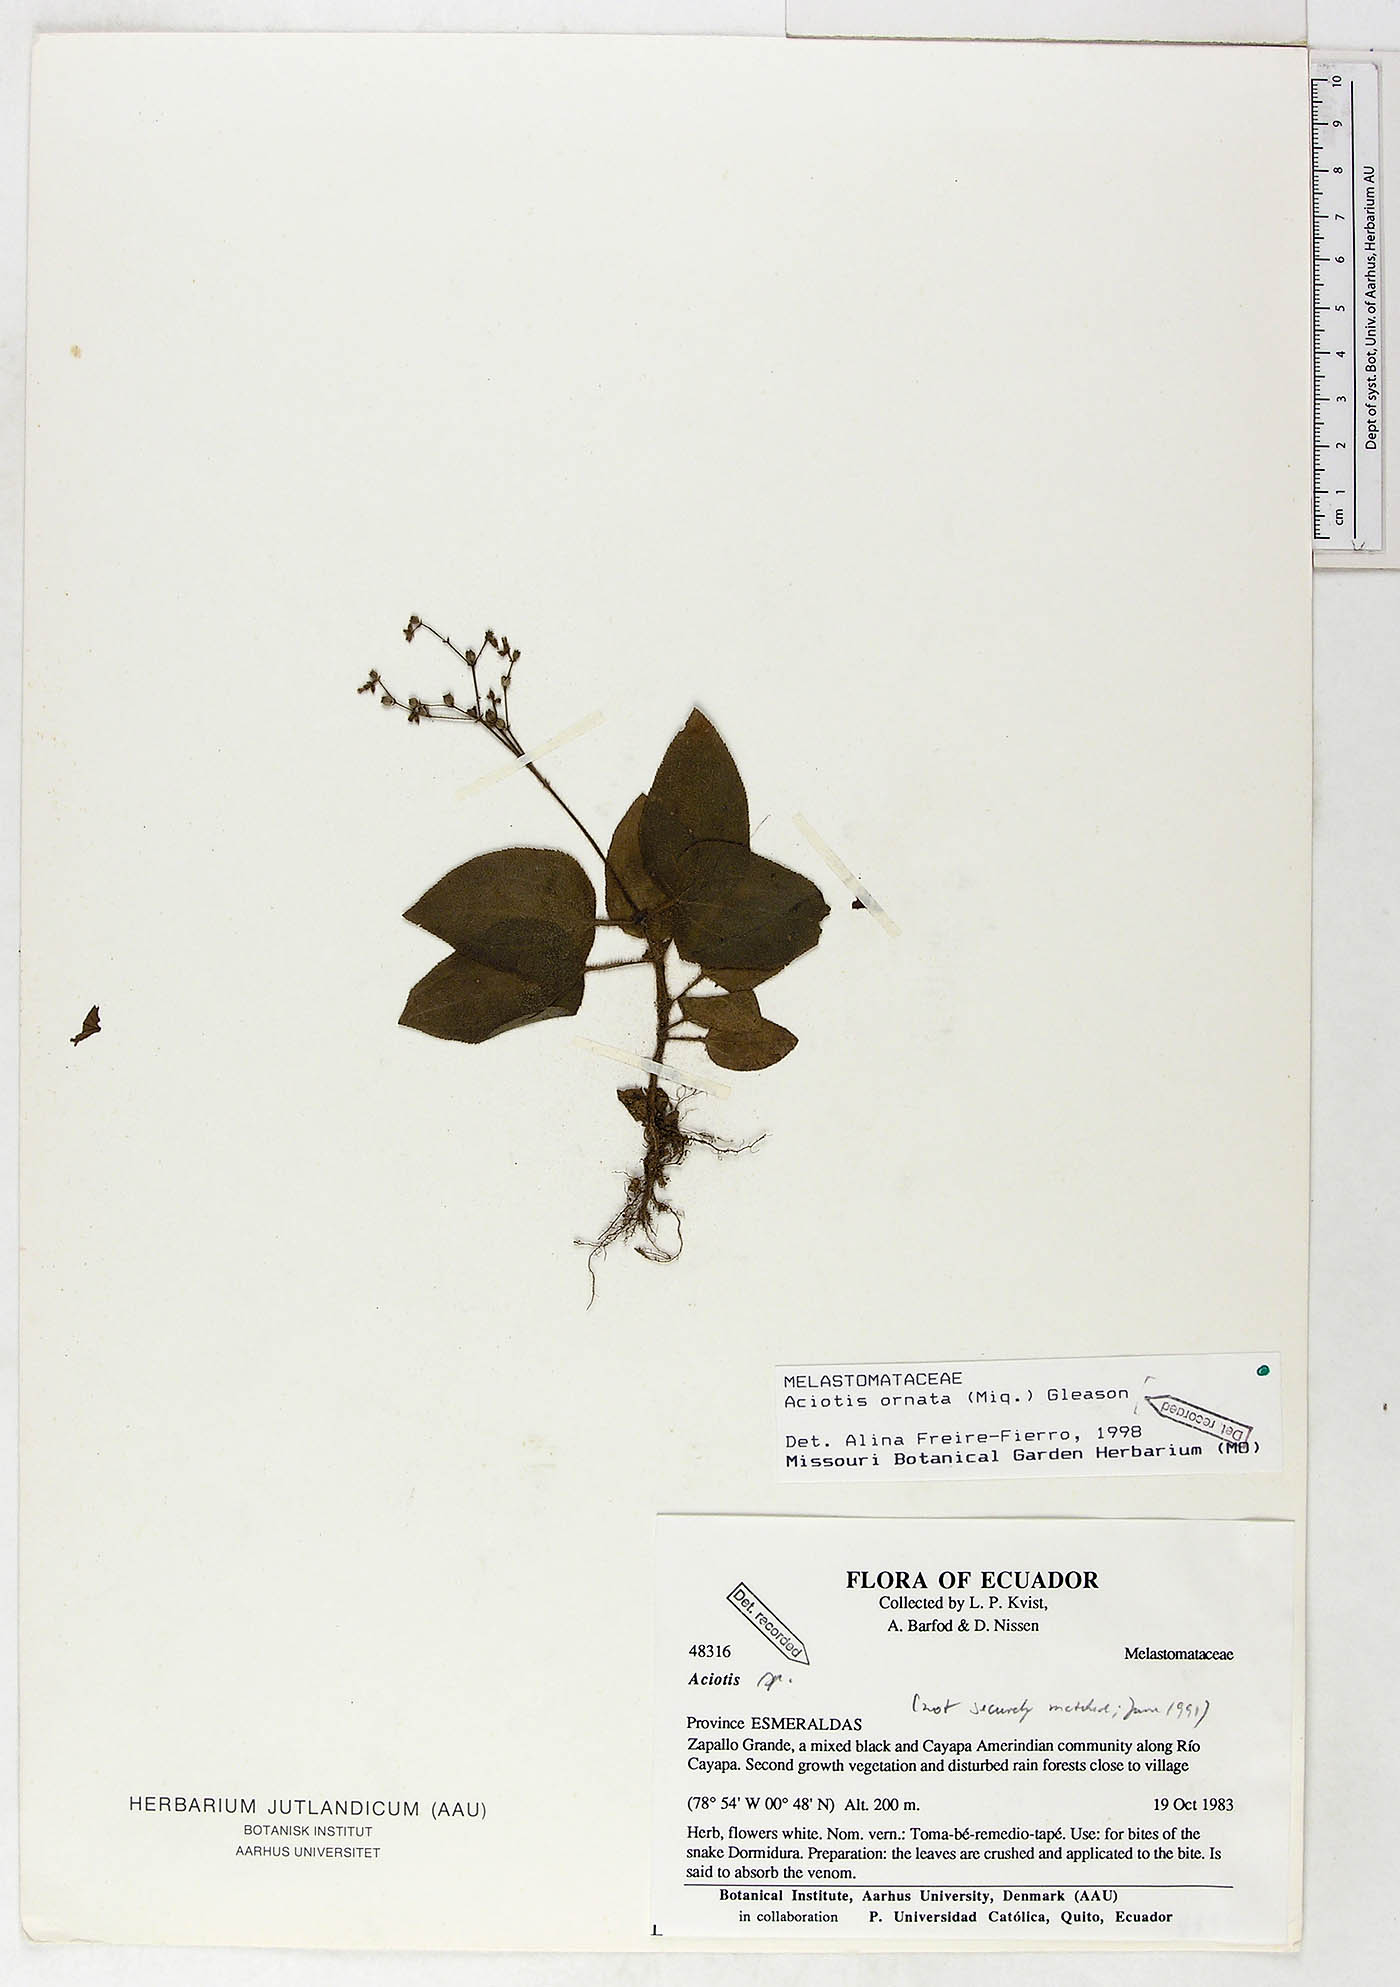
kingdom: Plantae
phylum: Tracheophyta
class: Magnoliopsida
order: Myrtales
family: Melastomataceae
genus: Aciotis
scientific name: Aciotis ornata
